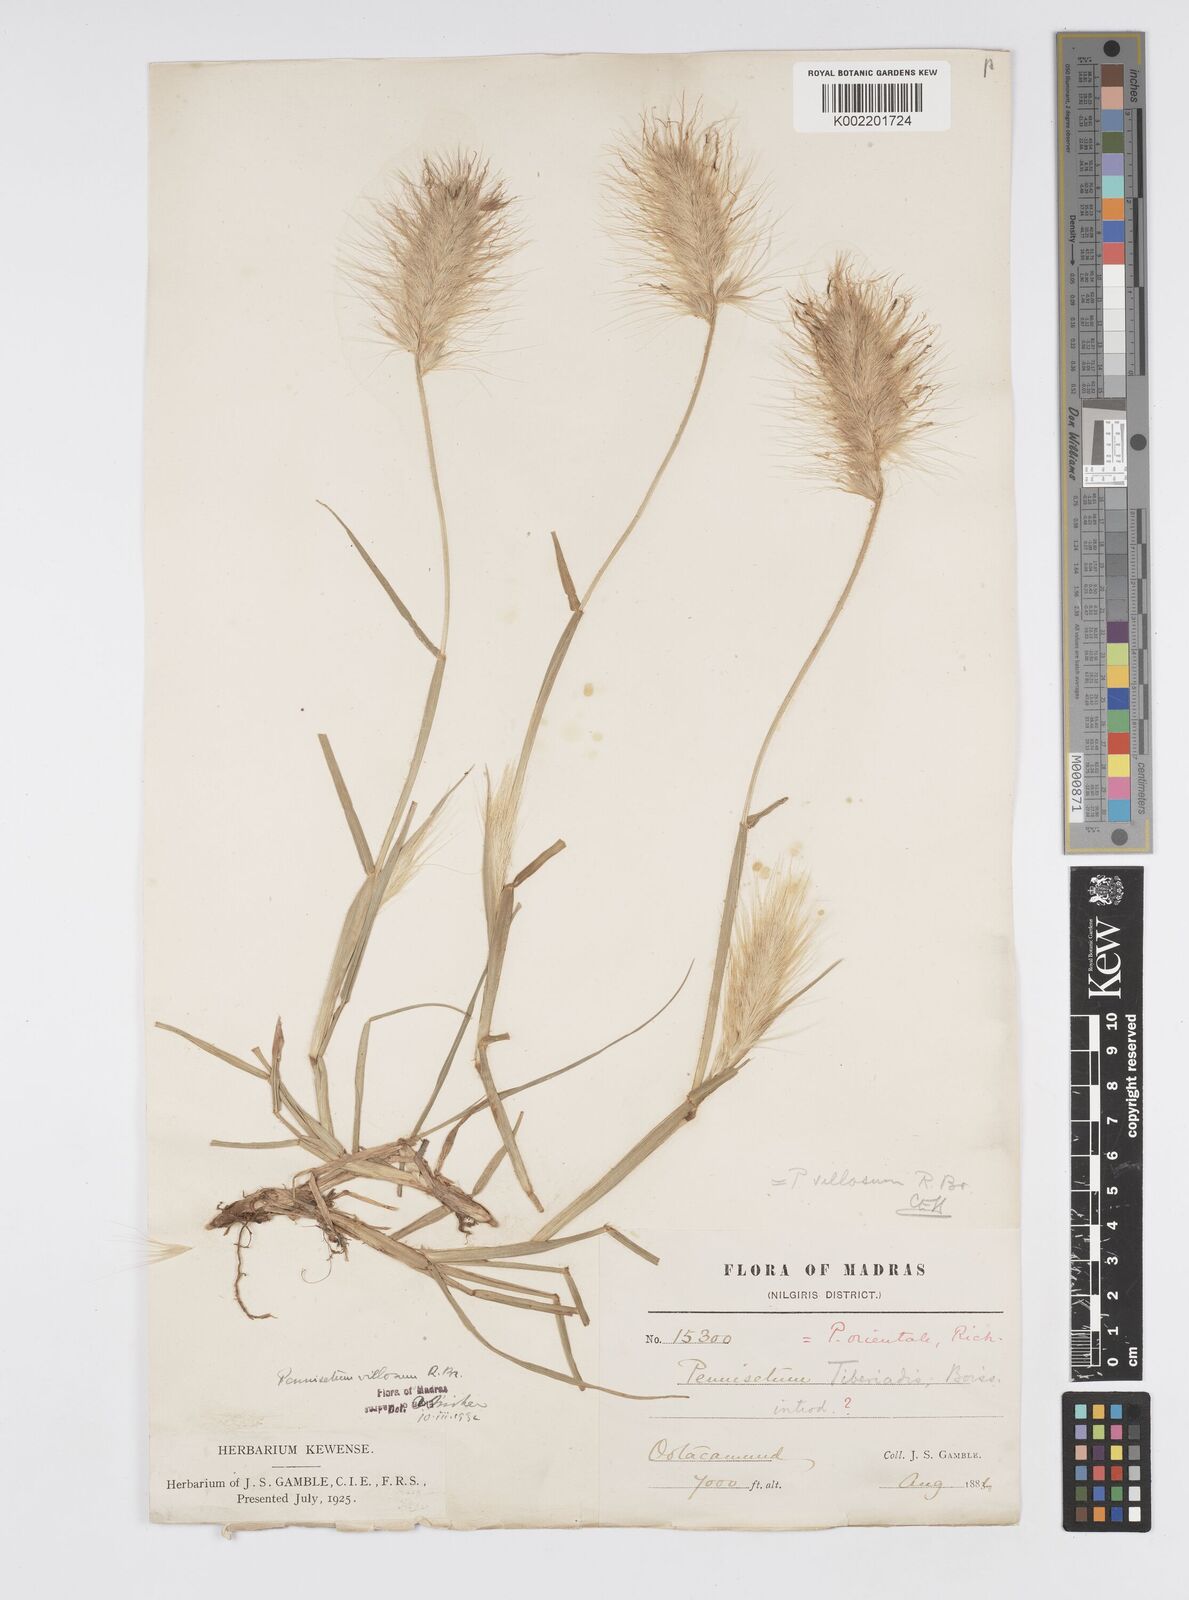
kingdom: Plantae
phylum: Tracheophyta
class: Liliopsida
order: Poales
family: Poaceae
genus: Cenchrus
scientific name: Cenchrus longisetus
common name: Feathertop
